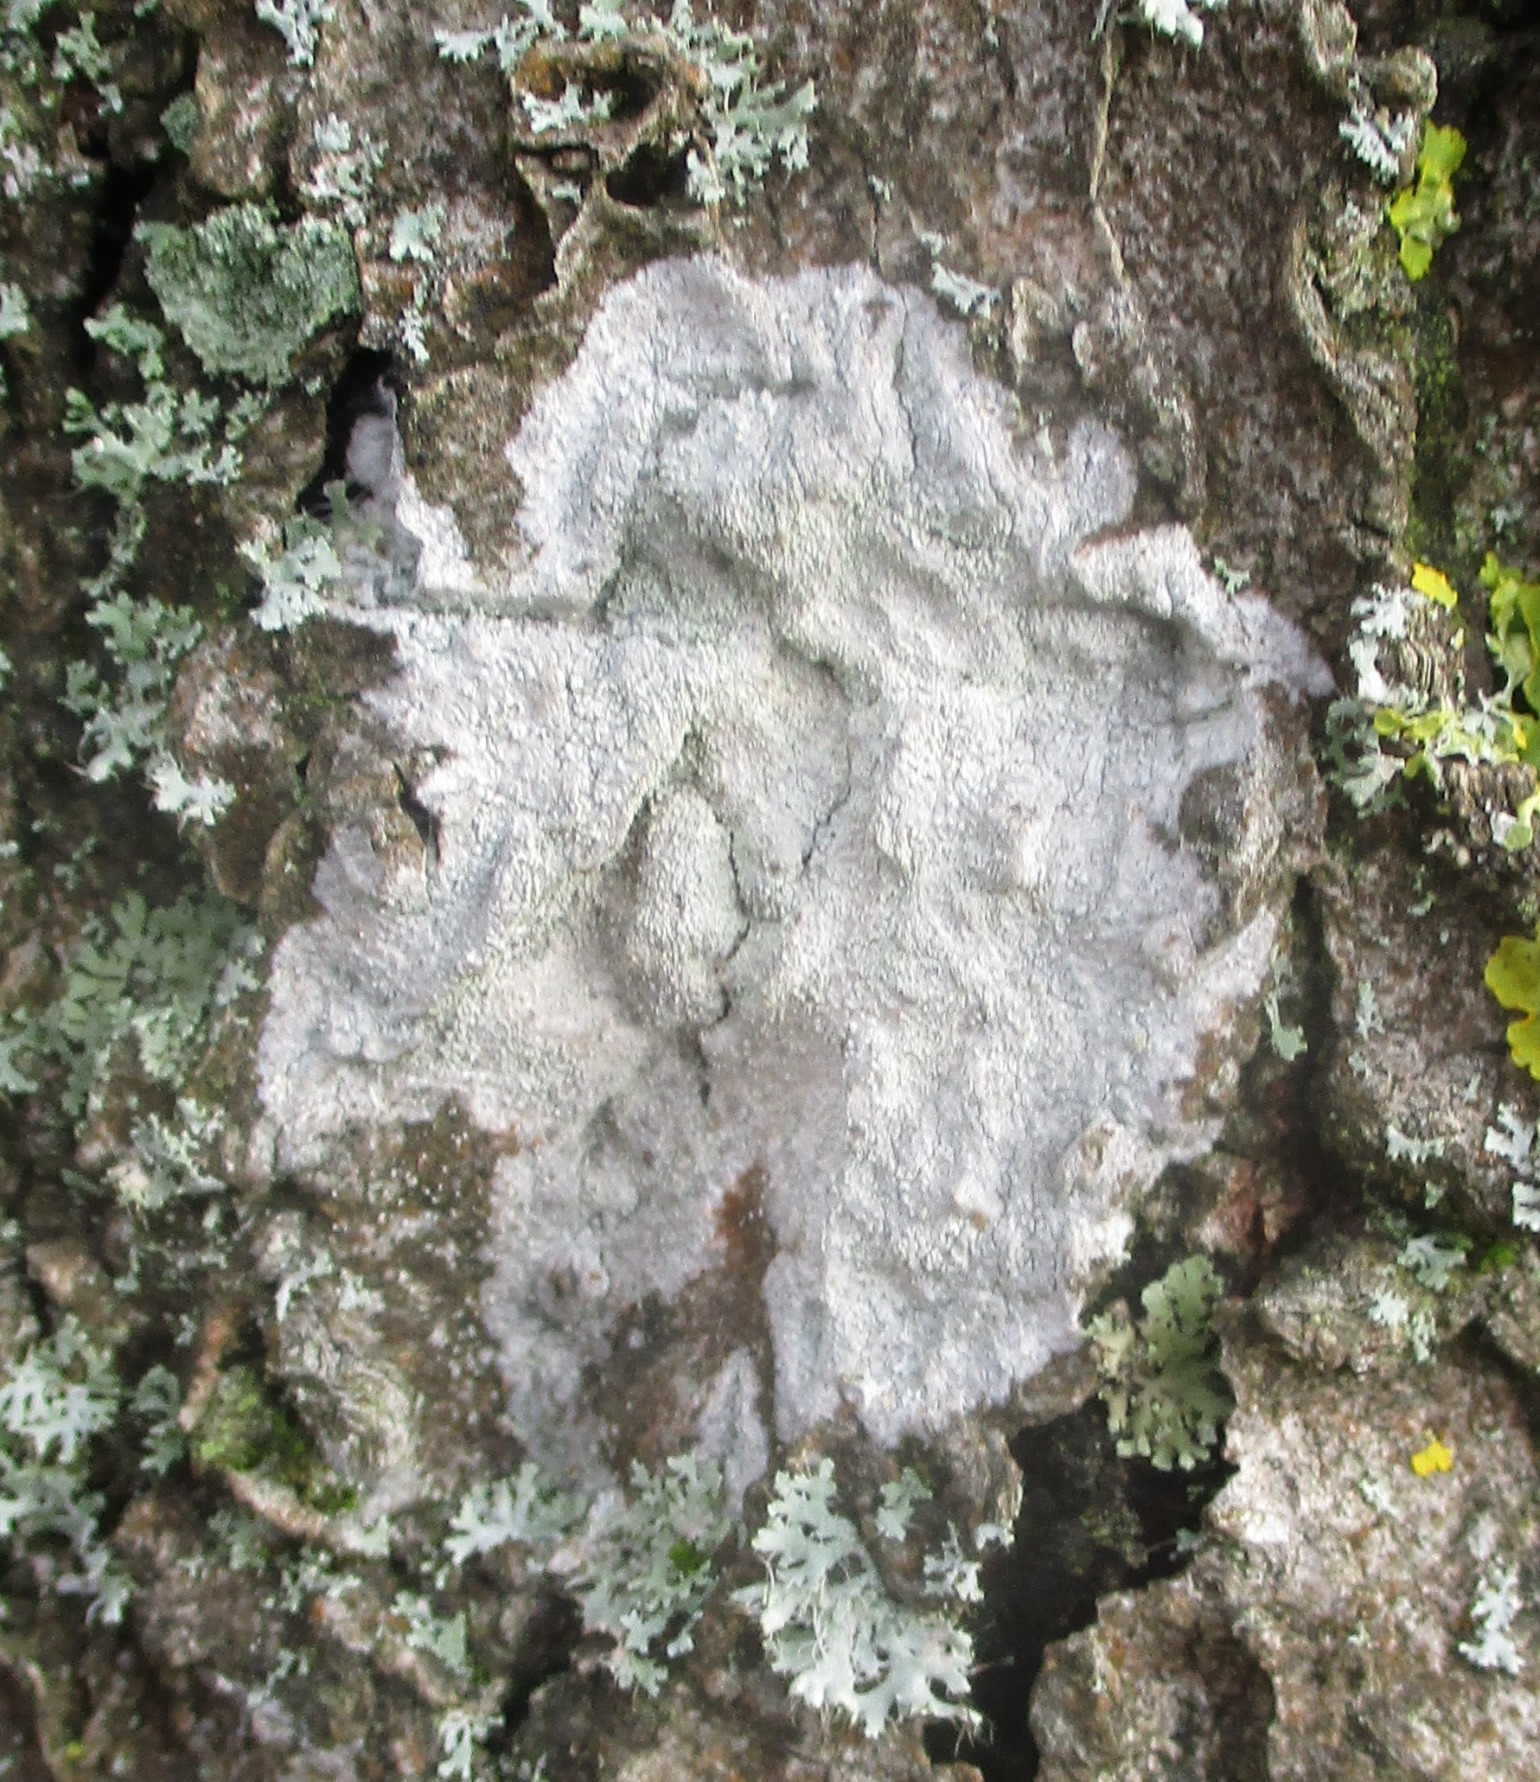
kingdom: Fungi
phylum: Ascomycota
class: Lecanoromycetes
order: Ostropales
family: Phlyctidaceae
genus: Phlyctis
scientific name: Phlyctis argena
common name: Almindelig sølvlav
